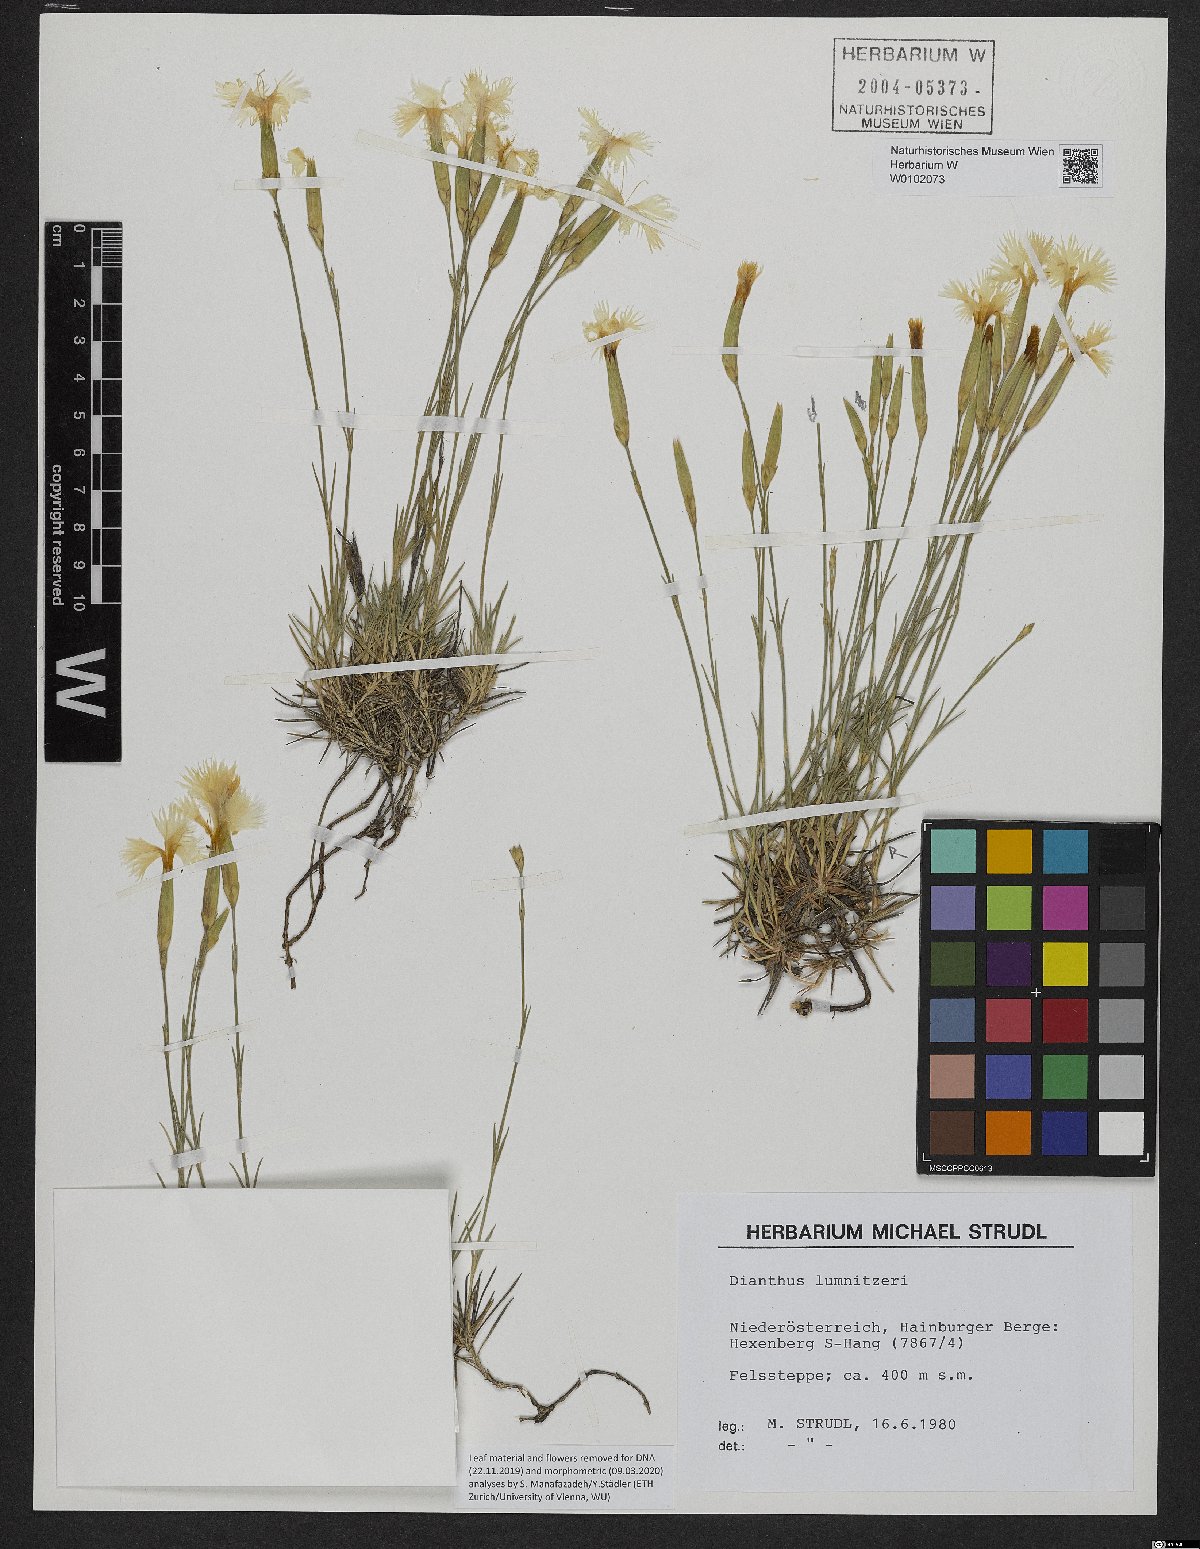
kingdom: Plantae
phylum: Tracheophyta
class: Magnoliopsida
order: Caryophyllales
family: Caryophyllaceae
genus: Dianthus
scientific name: Dianthus praecox
